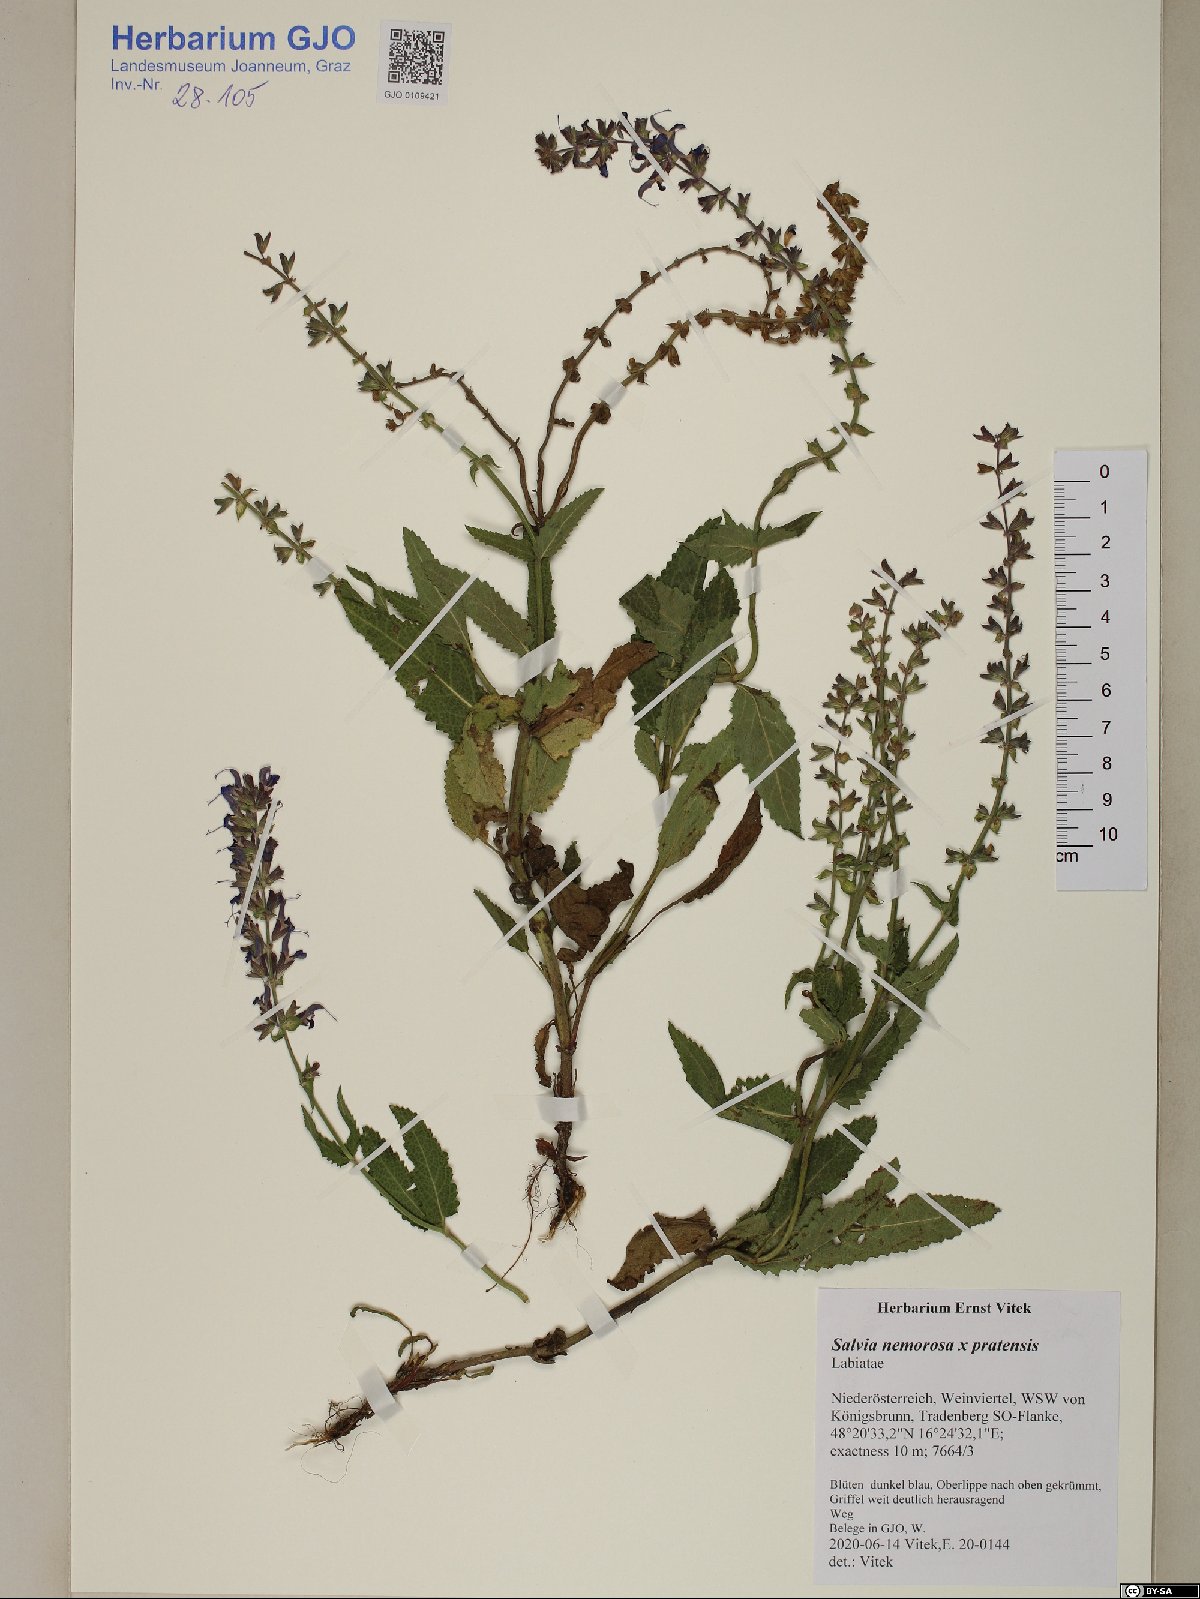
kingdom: Plantae
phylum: Tracheophyta
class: Magnoliopsida
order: Lamiales
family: Lamiaceae
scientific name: Lamiaceae
